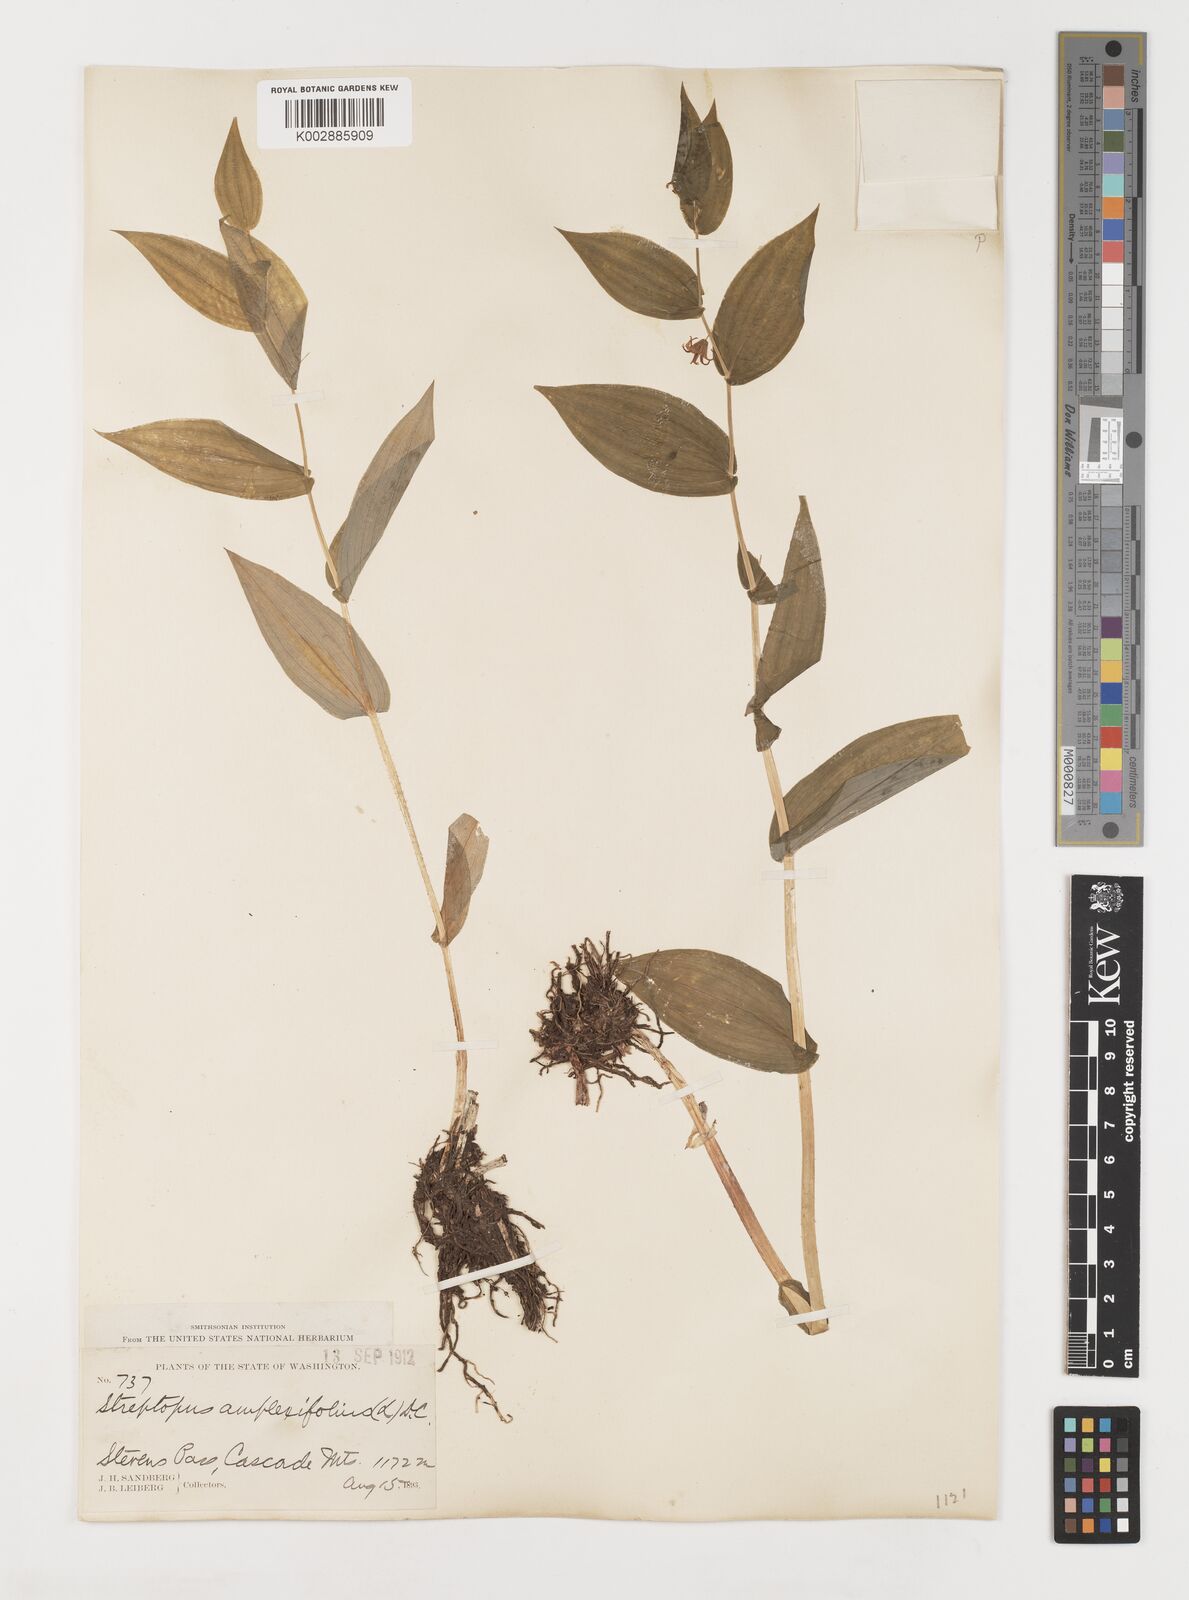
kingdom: Plantae
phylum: Tracheophyta
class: Liliopsida
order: Liliales
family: Liliaceae
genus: Streptopus
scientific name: Streptopus amplexifolius
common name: Clasp twisted stalk
